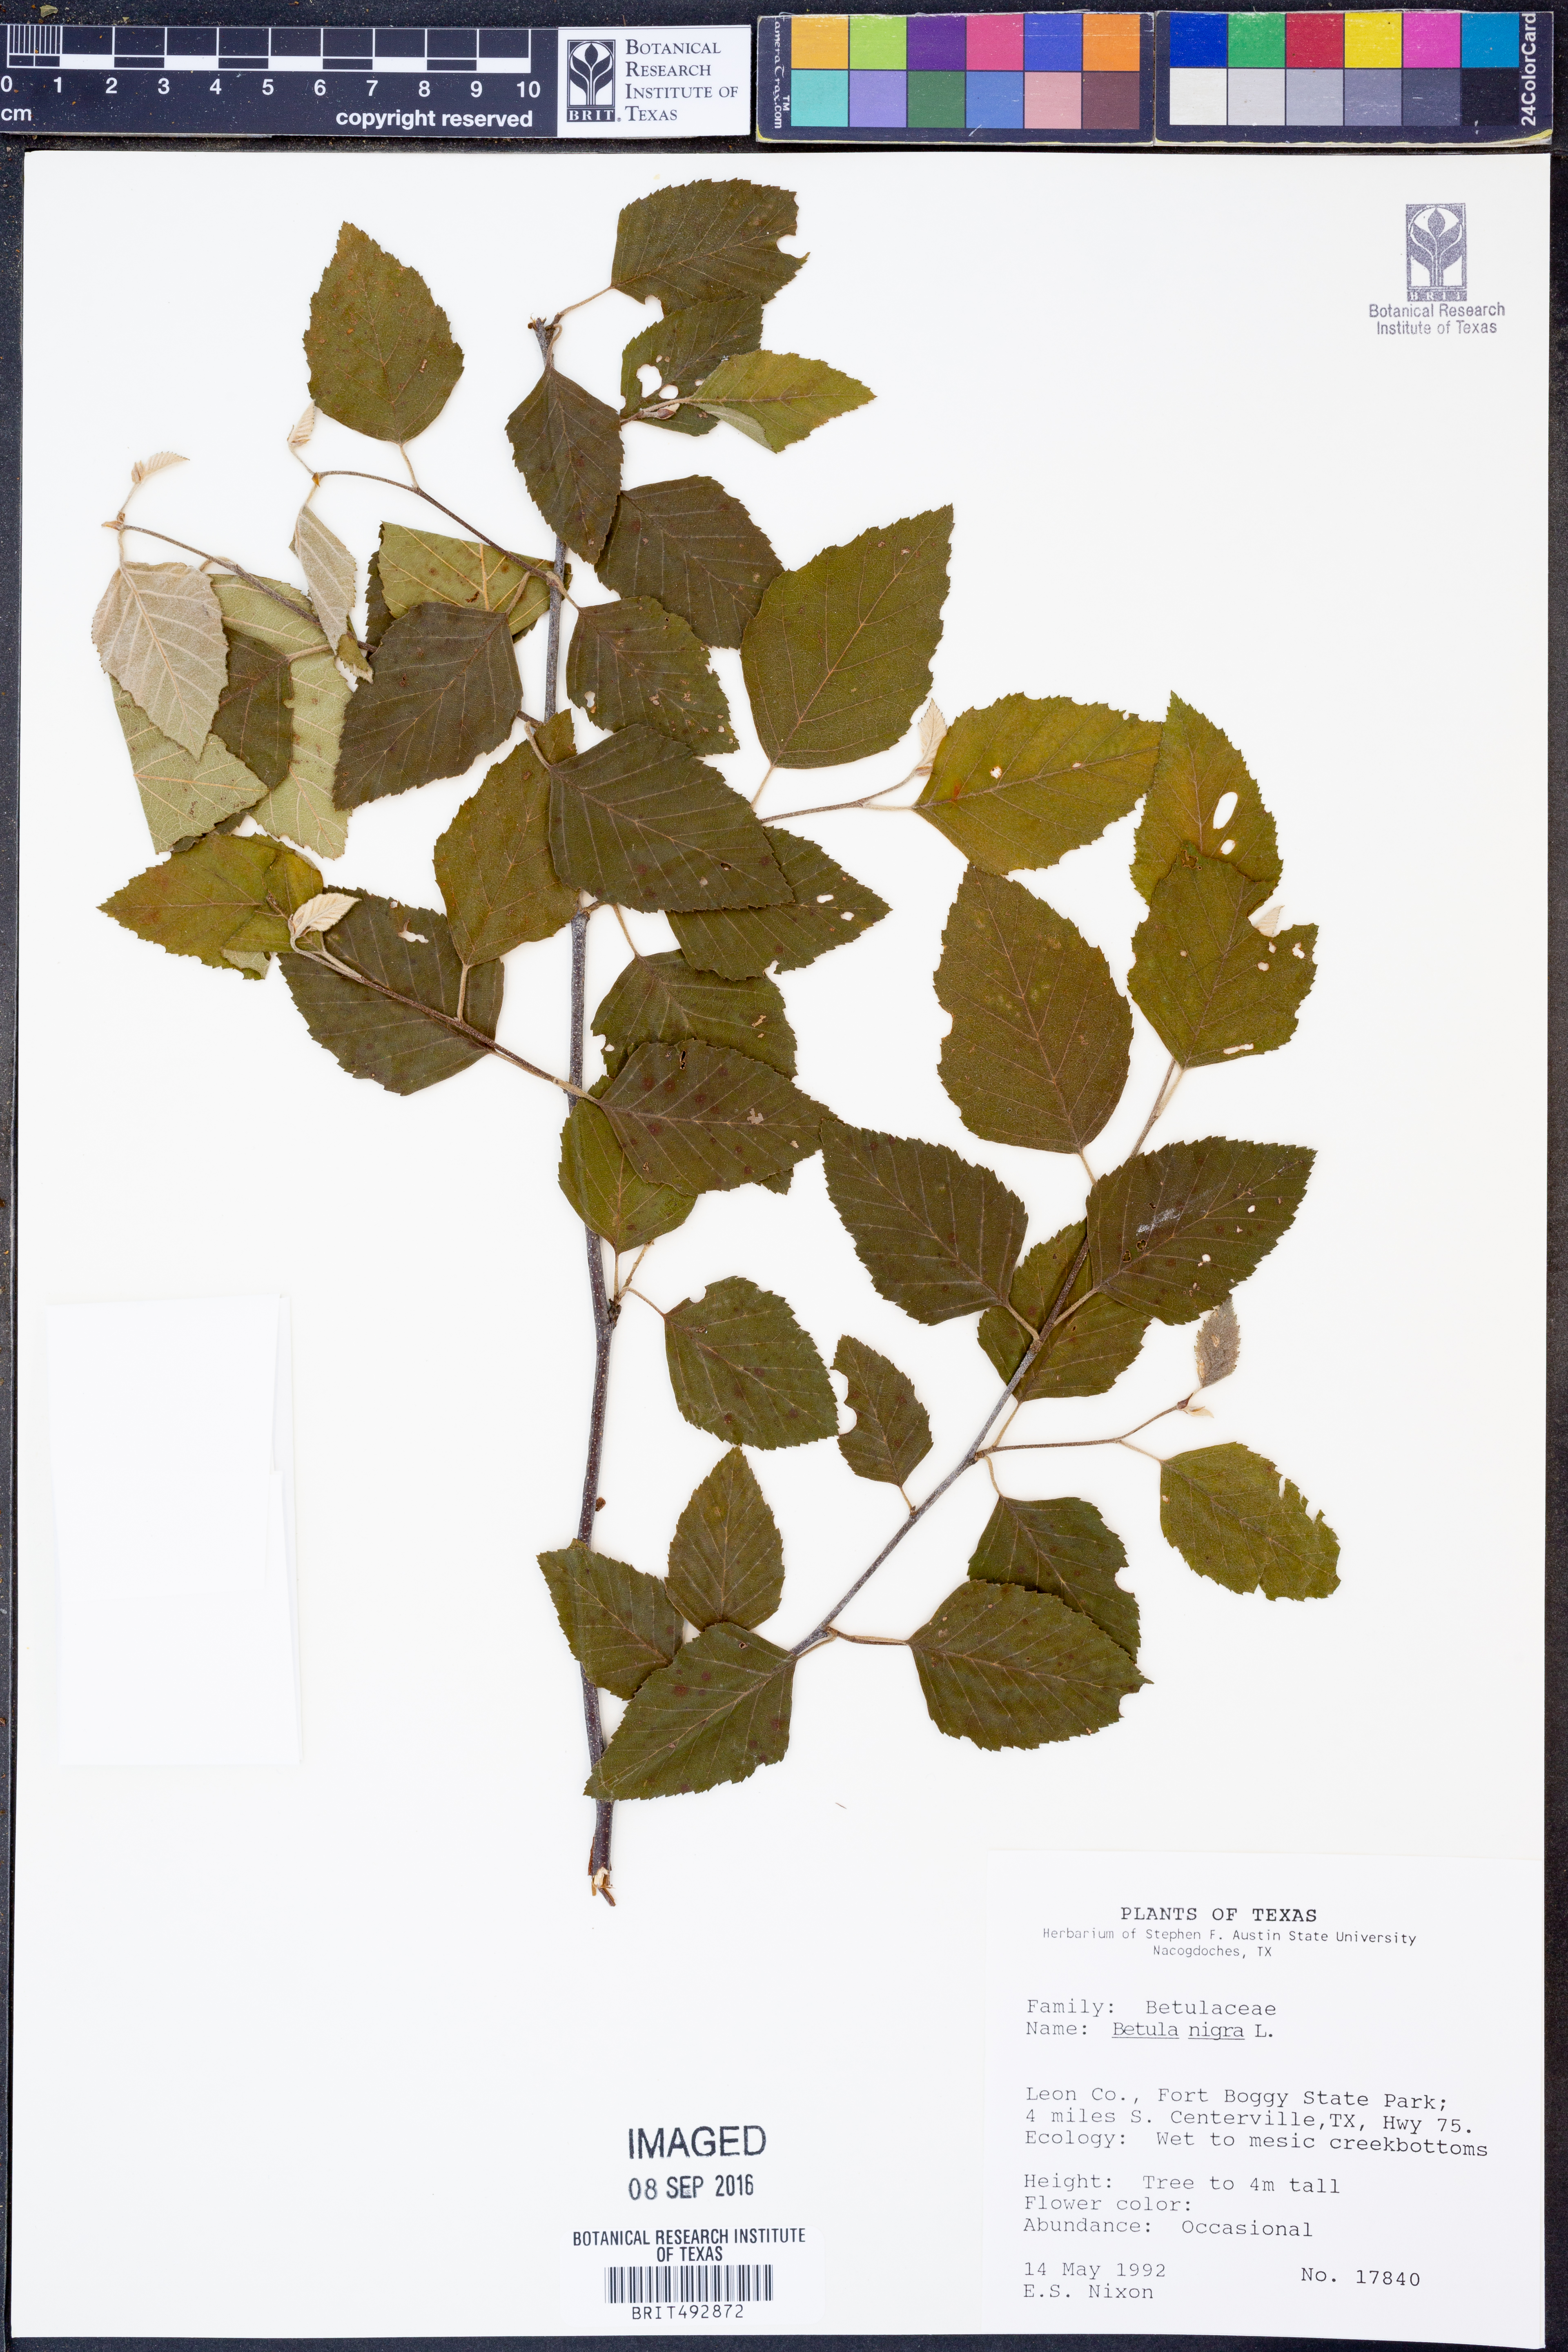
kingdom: Plantae
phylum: Tracheophyta
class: Magnoliopsida
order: Fagales
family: Betulaceae
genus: Betula
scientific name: Betula nigra
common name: Black birch
